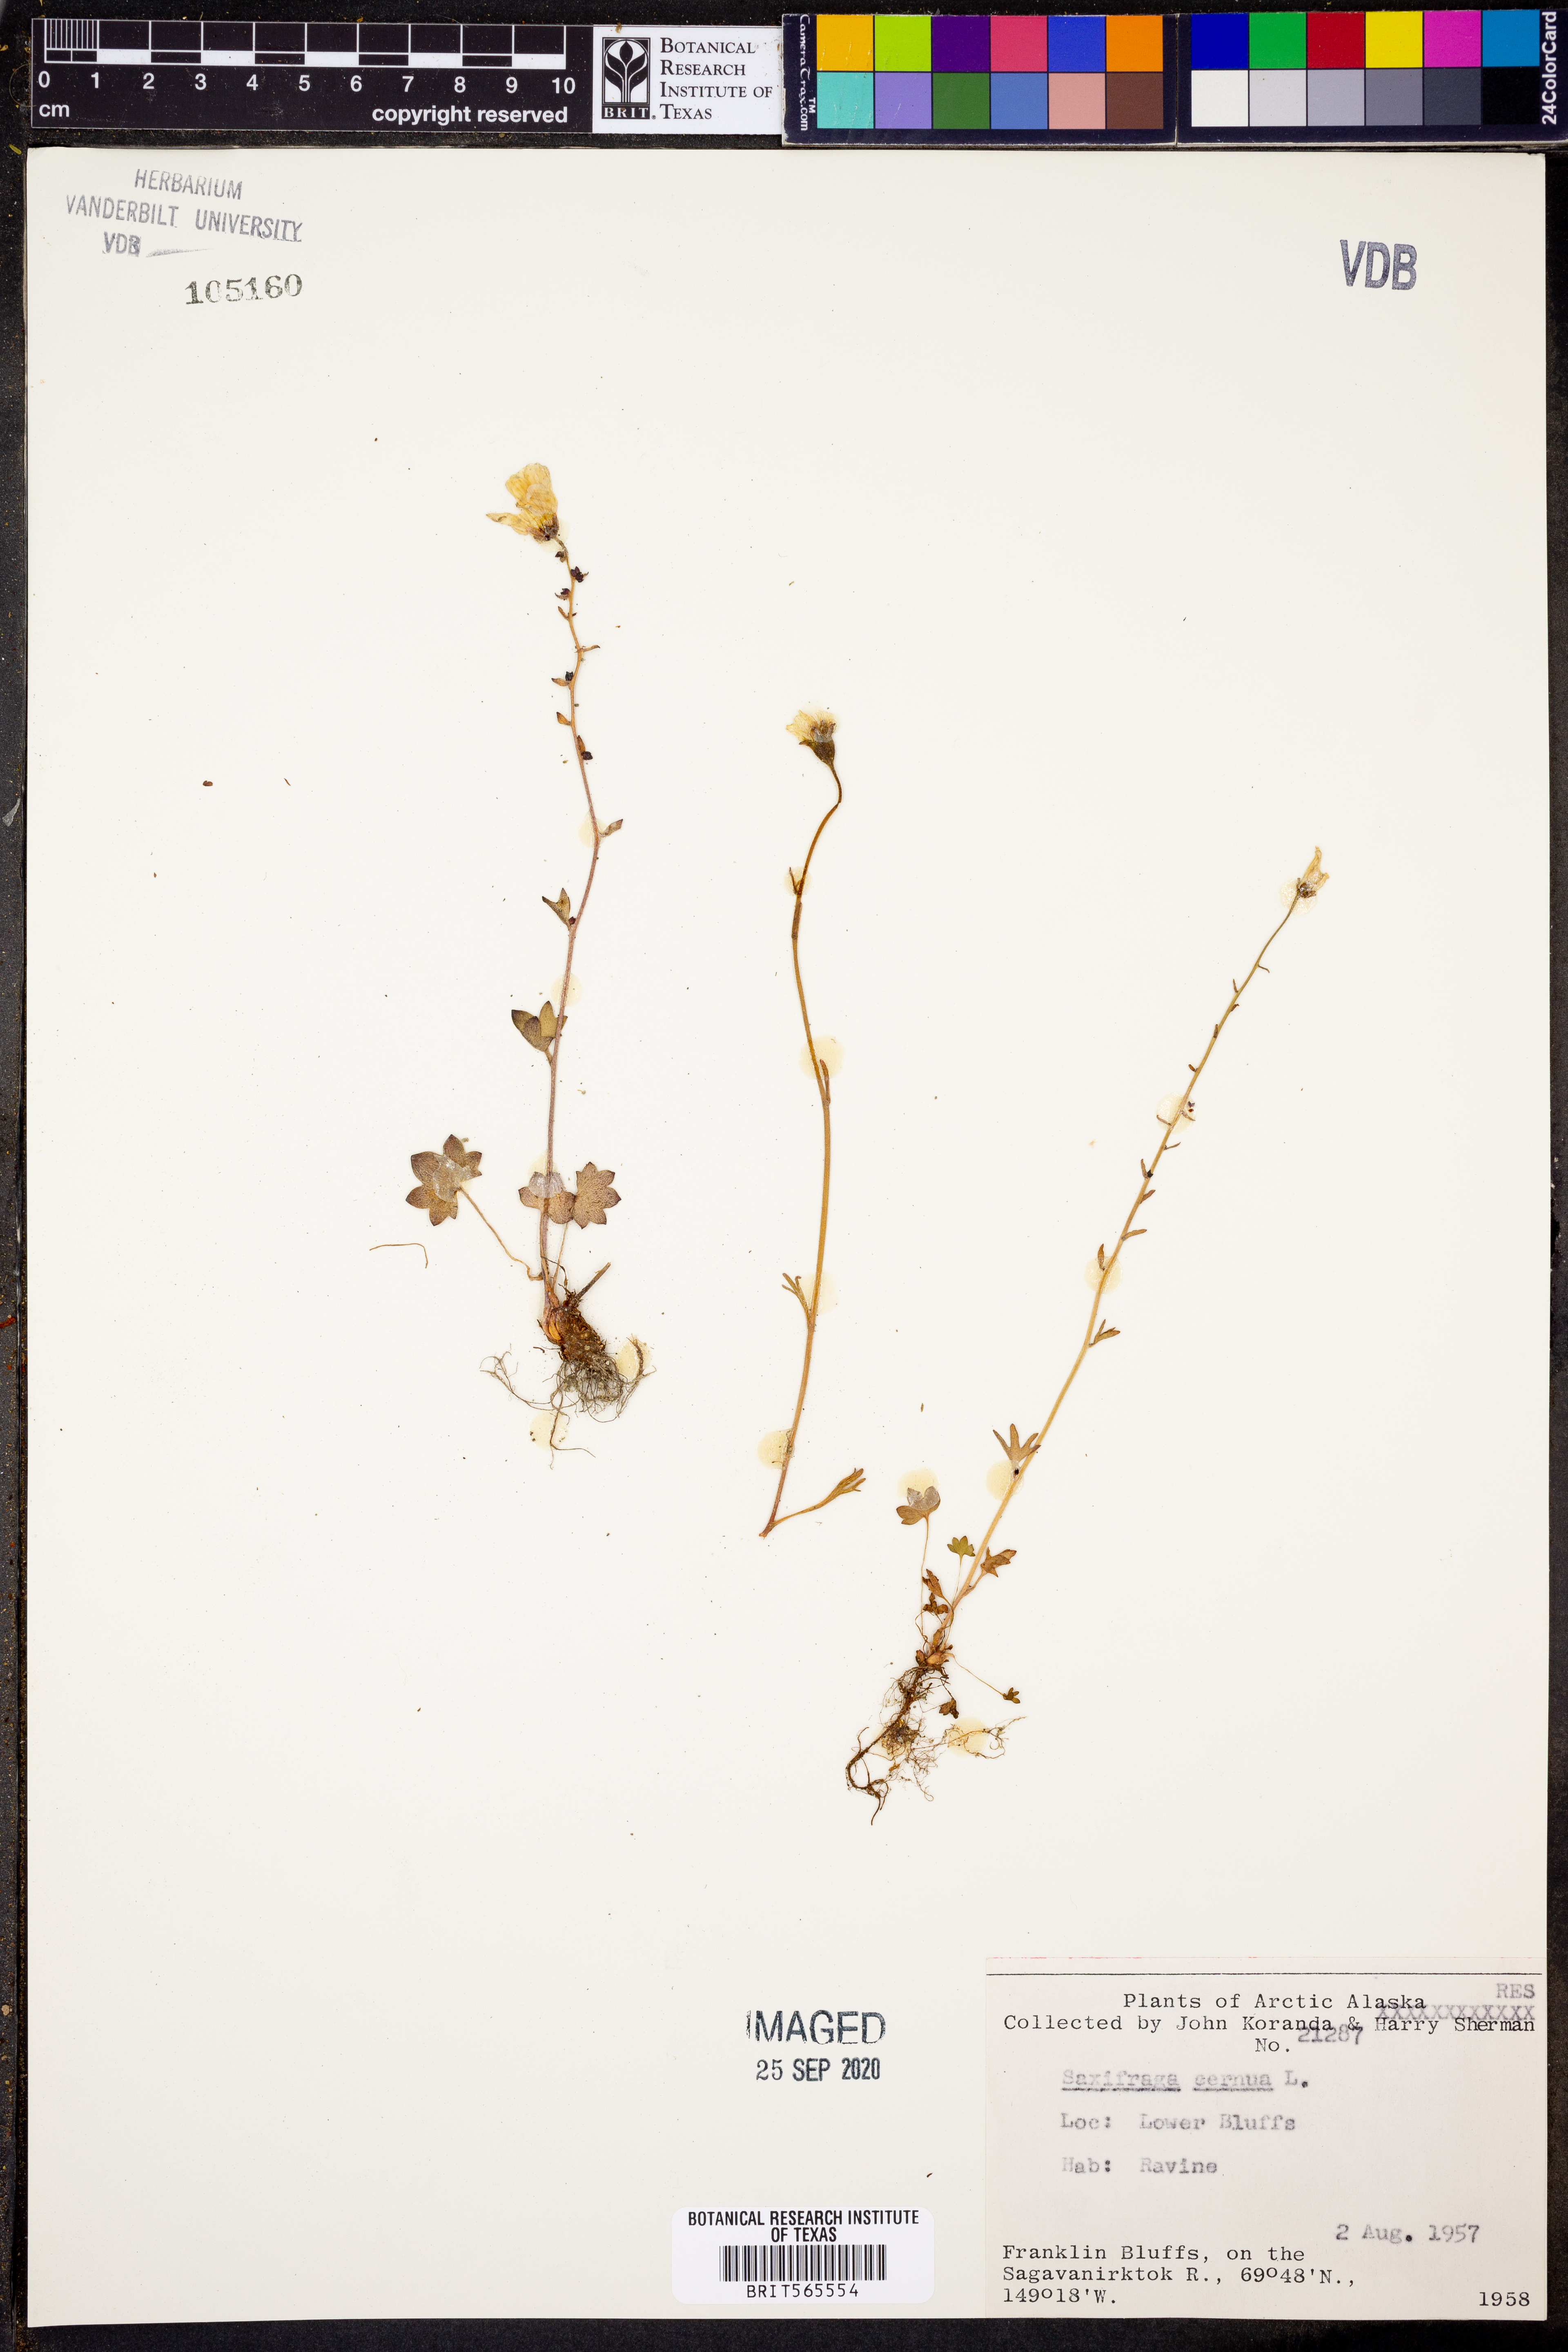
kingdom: Plantae
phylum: Tracheophyta
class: Magnoliopsida
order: Saxifragales
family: Saxifragaceae
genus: Saxifraga
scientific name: Saxifraga cernua
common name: Drooping saxifrage
